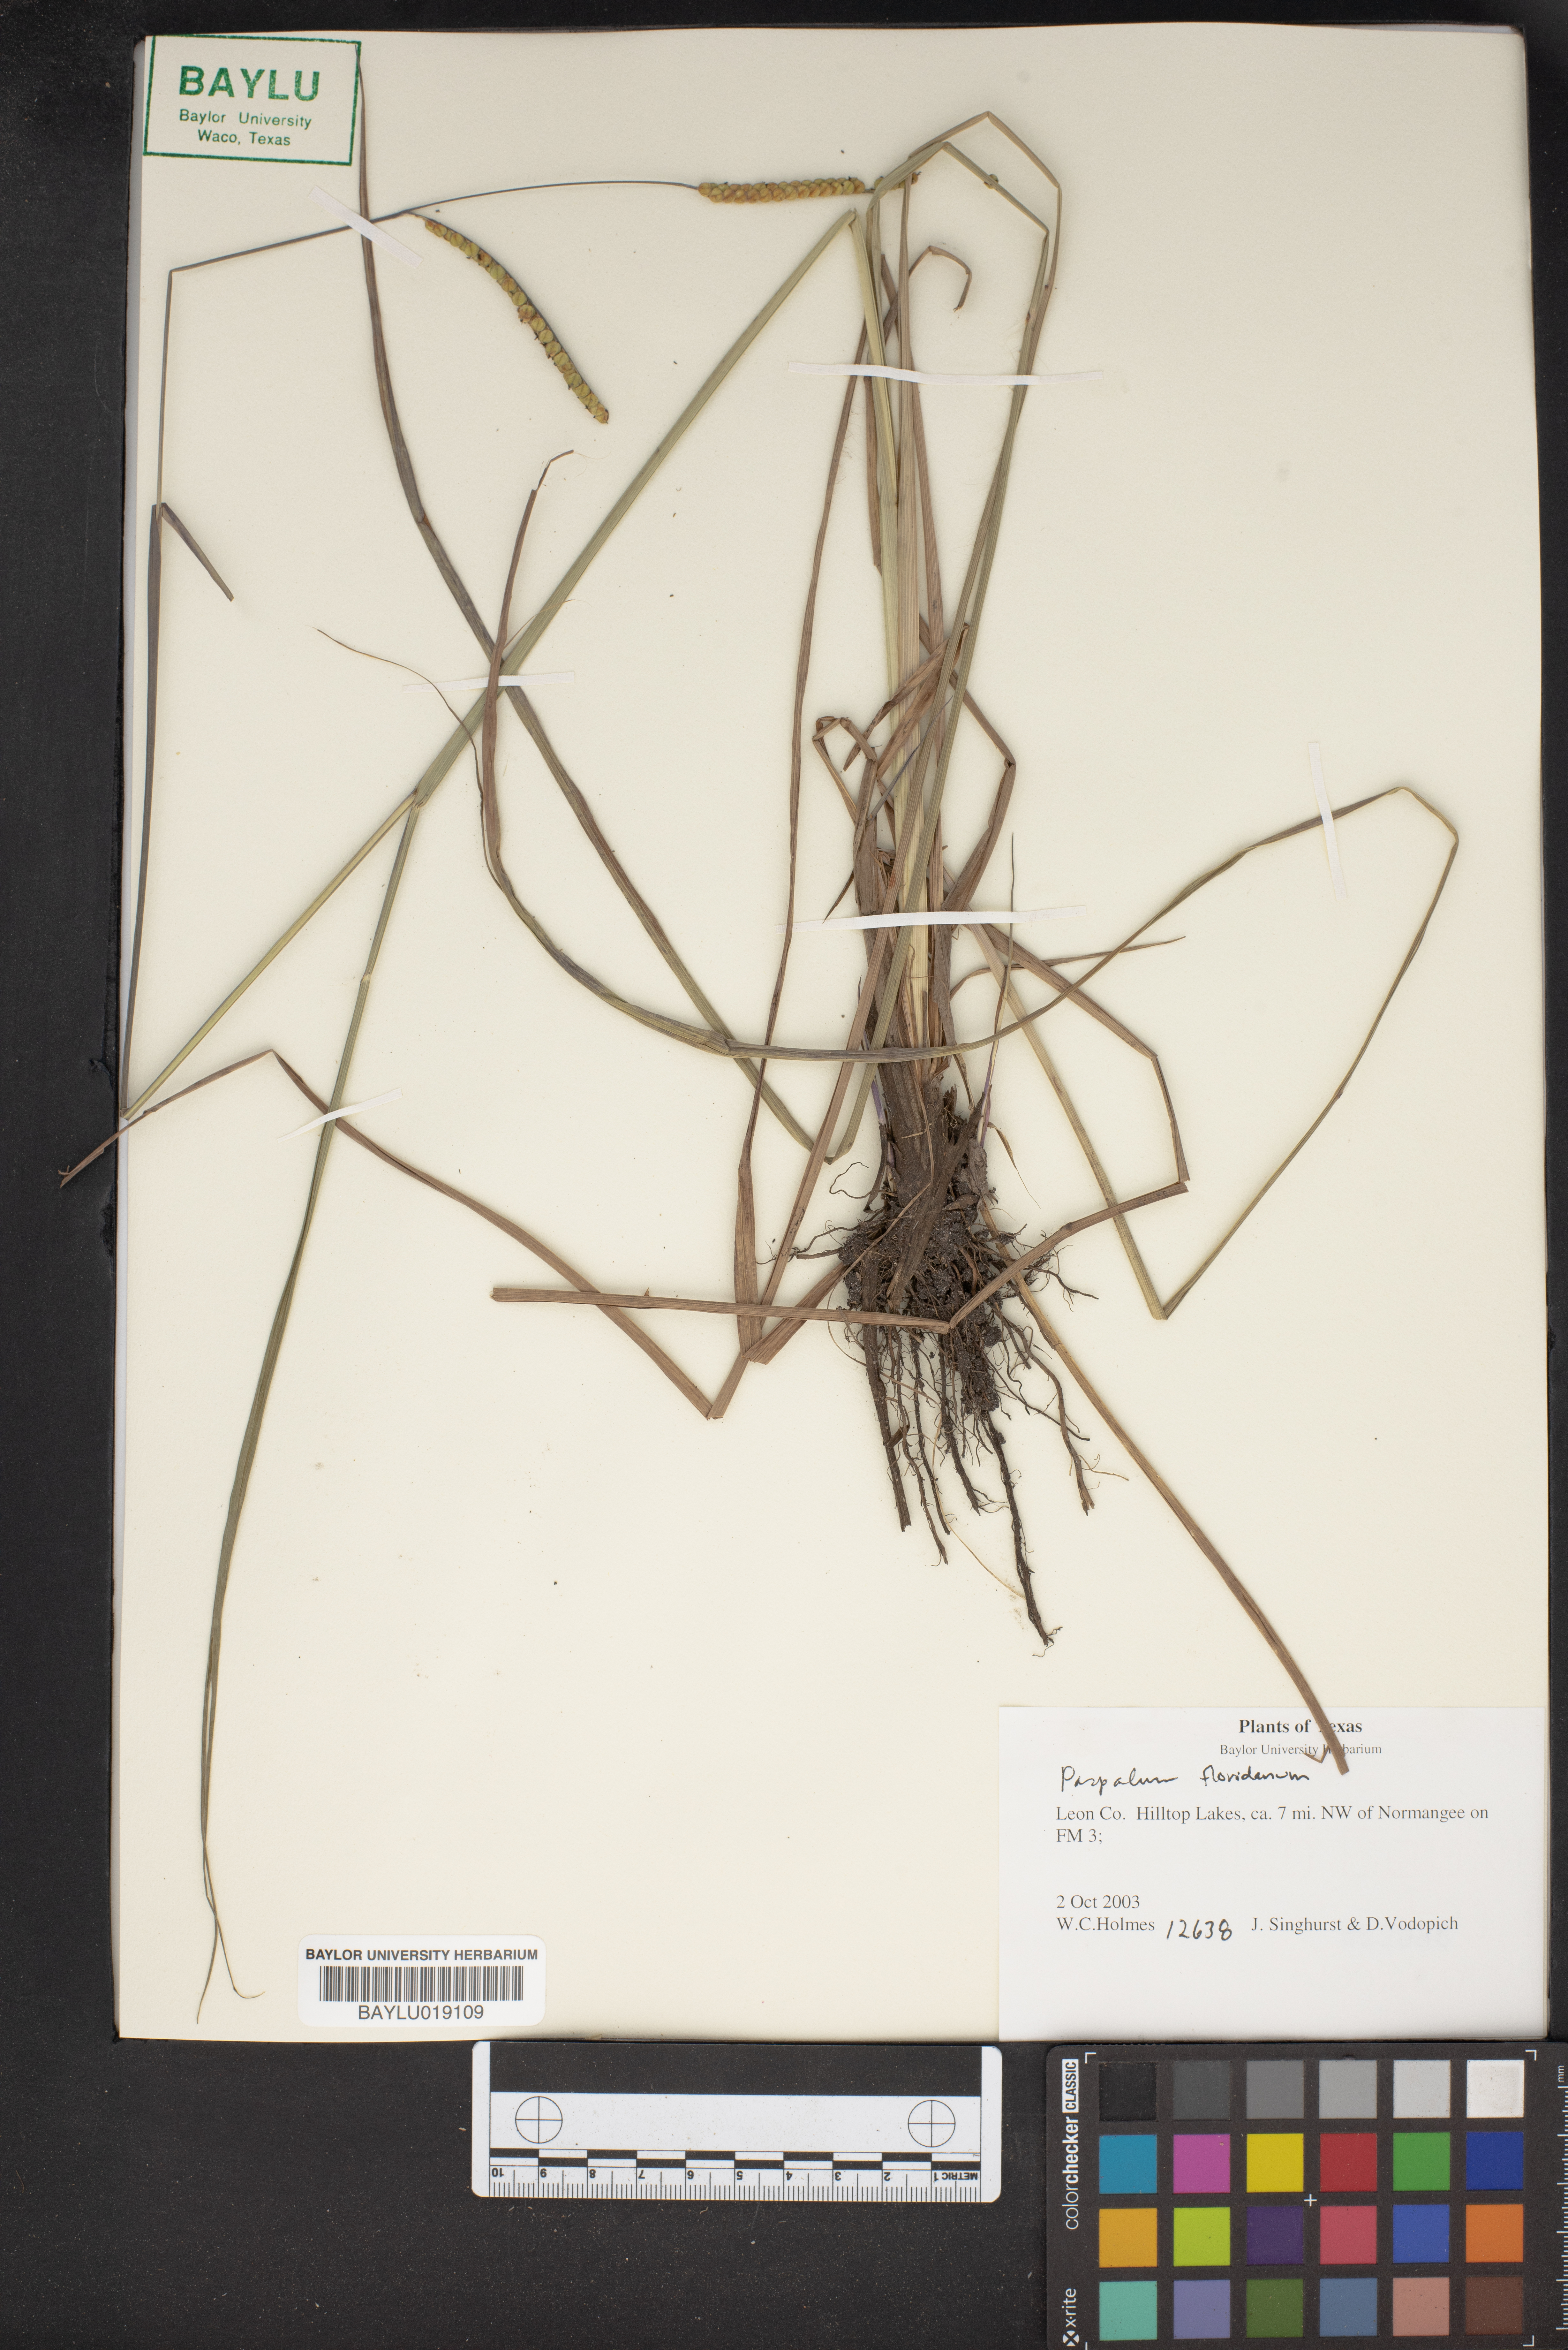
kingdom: Plantae
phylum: Tracheophyta
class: Liliopsida
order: Poales
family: Poaceae
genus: Paspalum
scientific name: Paspalum floridanum
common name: Florida paspalum
